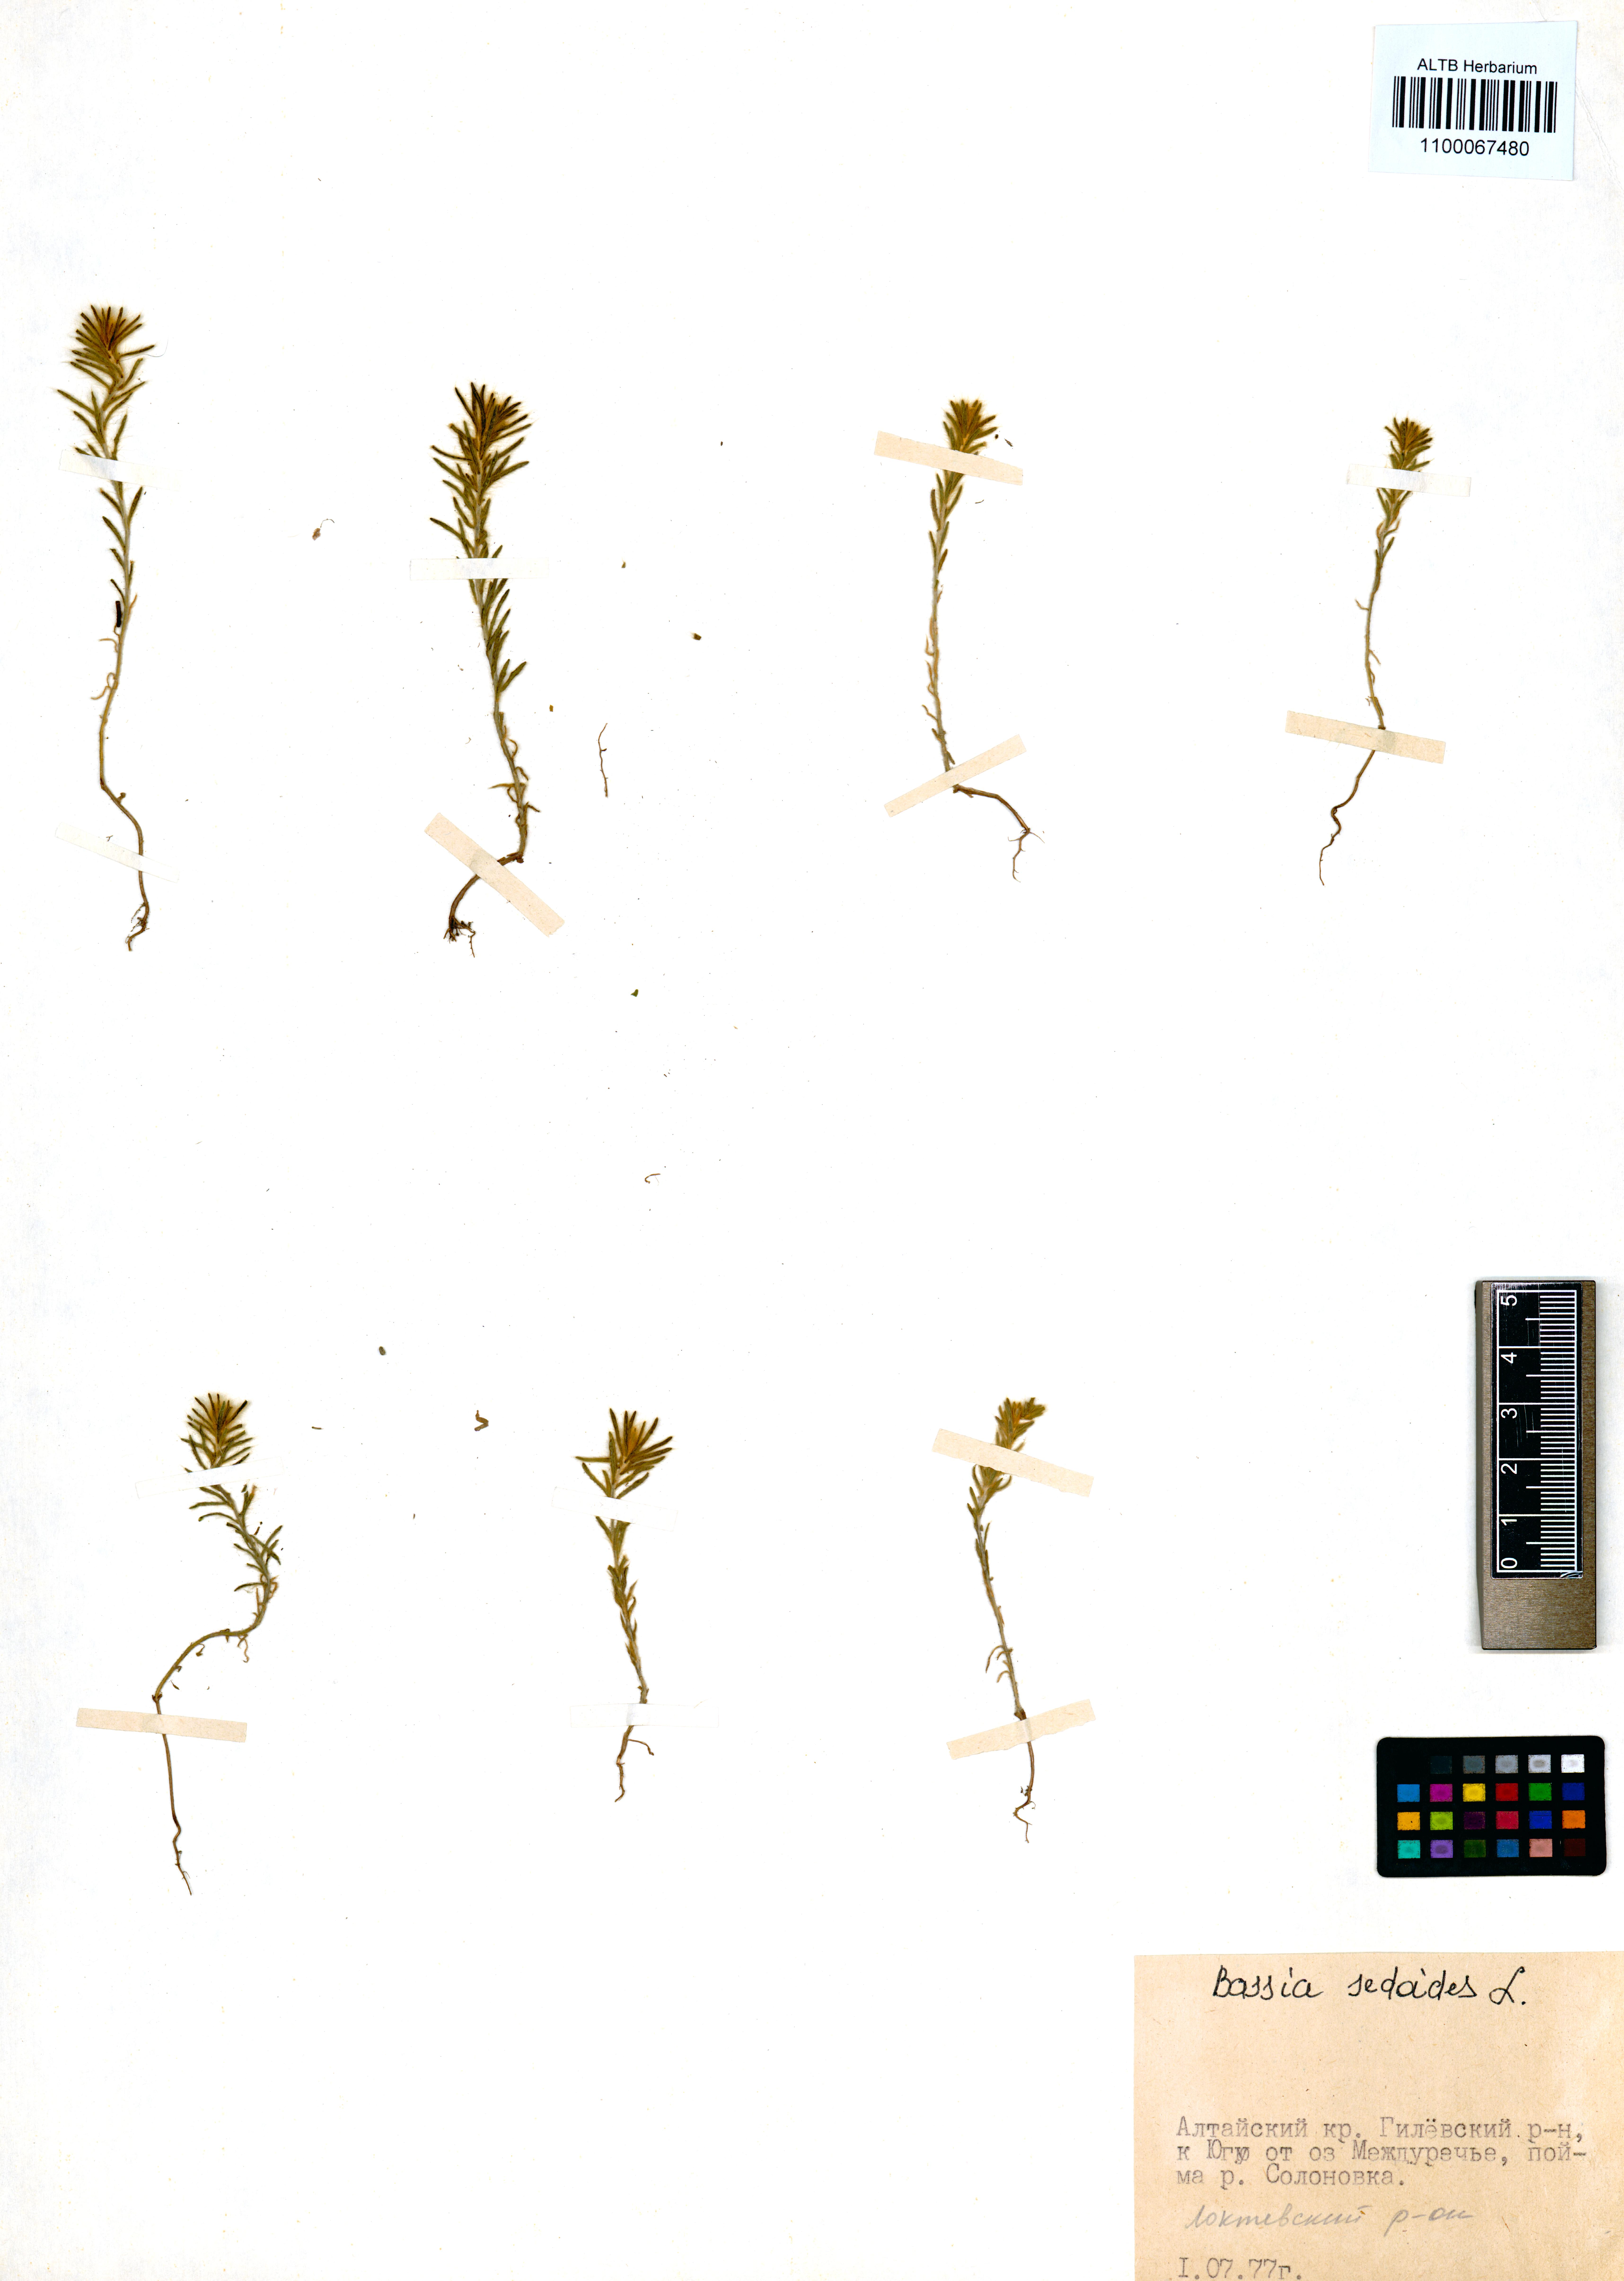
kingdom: Plantae
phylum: Tracheophyta
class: Magnoliopsida
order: Caryophyllales
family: Amaranthaceae
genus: Sedobassia
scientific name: Sedobassia sedoides
